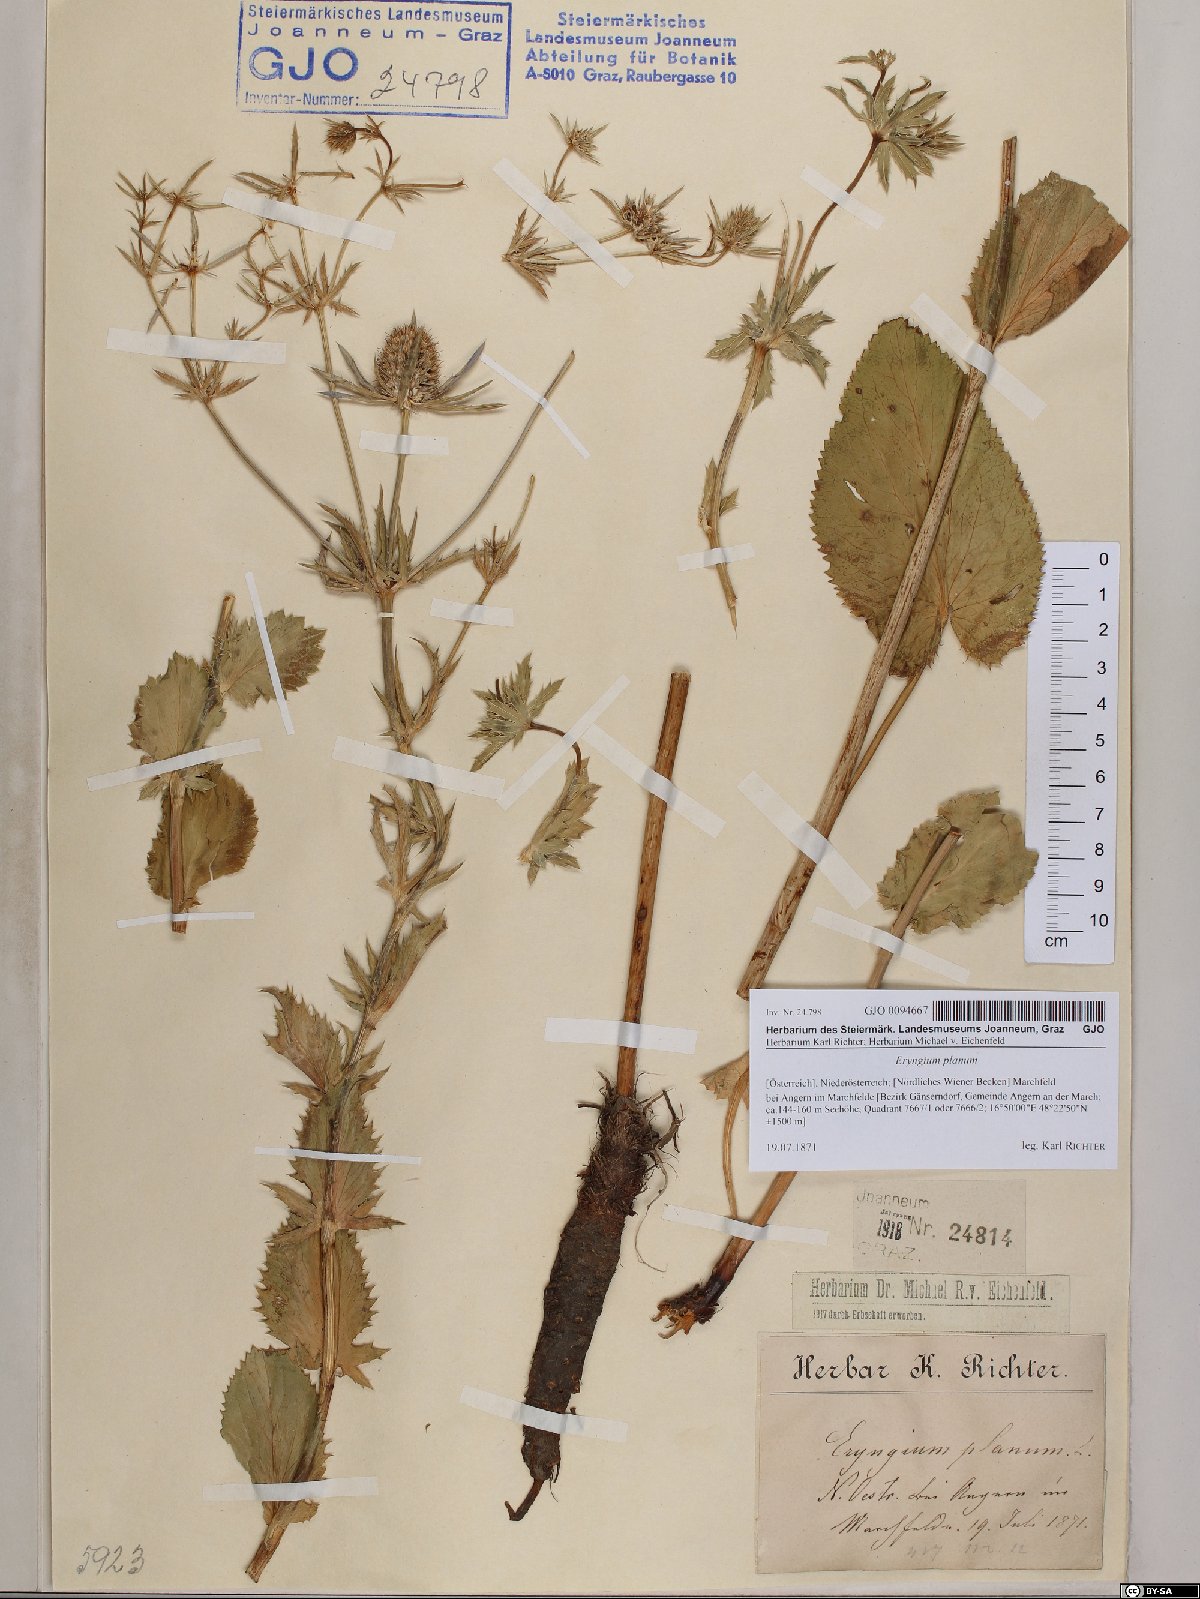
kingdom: Plantae
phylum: Tracheophyta
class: Magnoliopsida
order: Apiales
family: Apiaceae
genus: Eryngium
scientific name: Eryngium planum
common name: Blue eryngo
